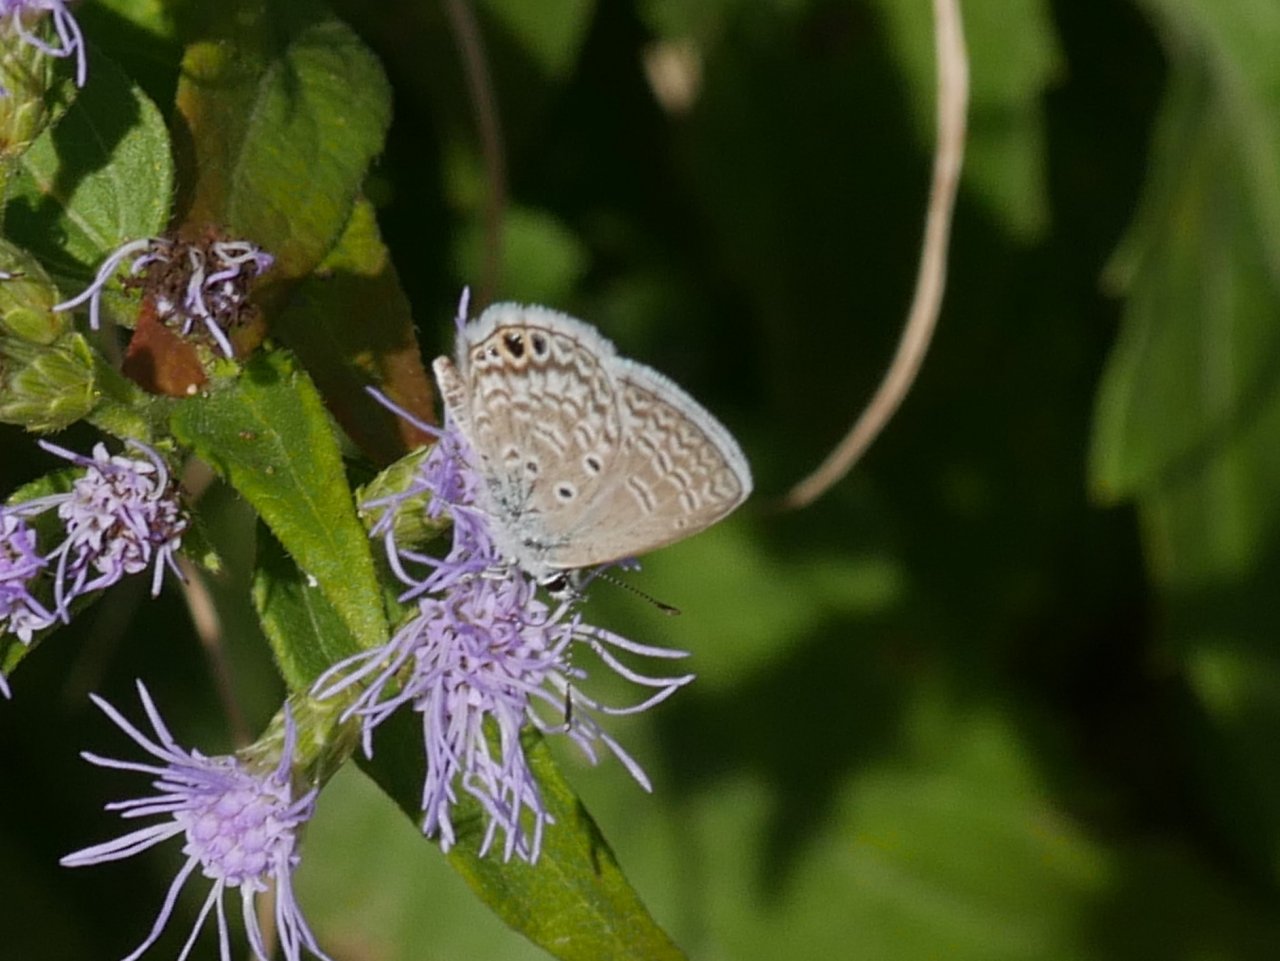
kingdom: Animalia
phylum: Arthropoda
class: Insecta
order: Lepidoptera
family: Lycaenidae
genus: Hemiargus
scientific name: Hemiargus ceraunus
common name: Ceraunus Blue
